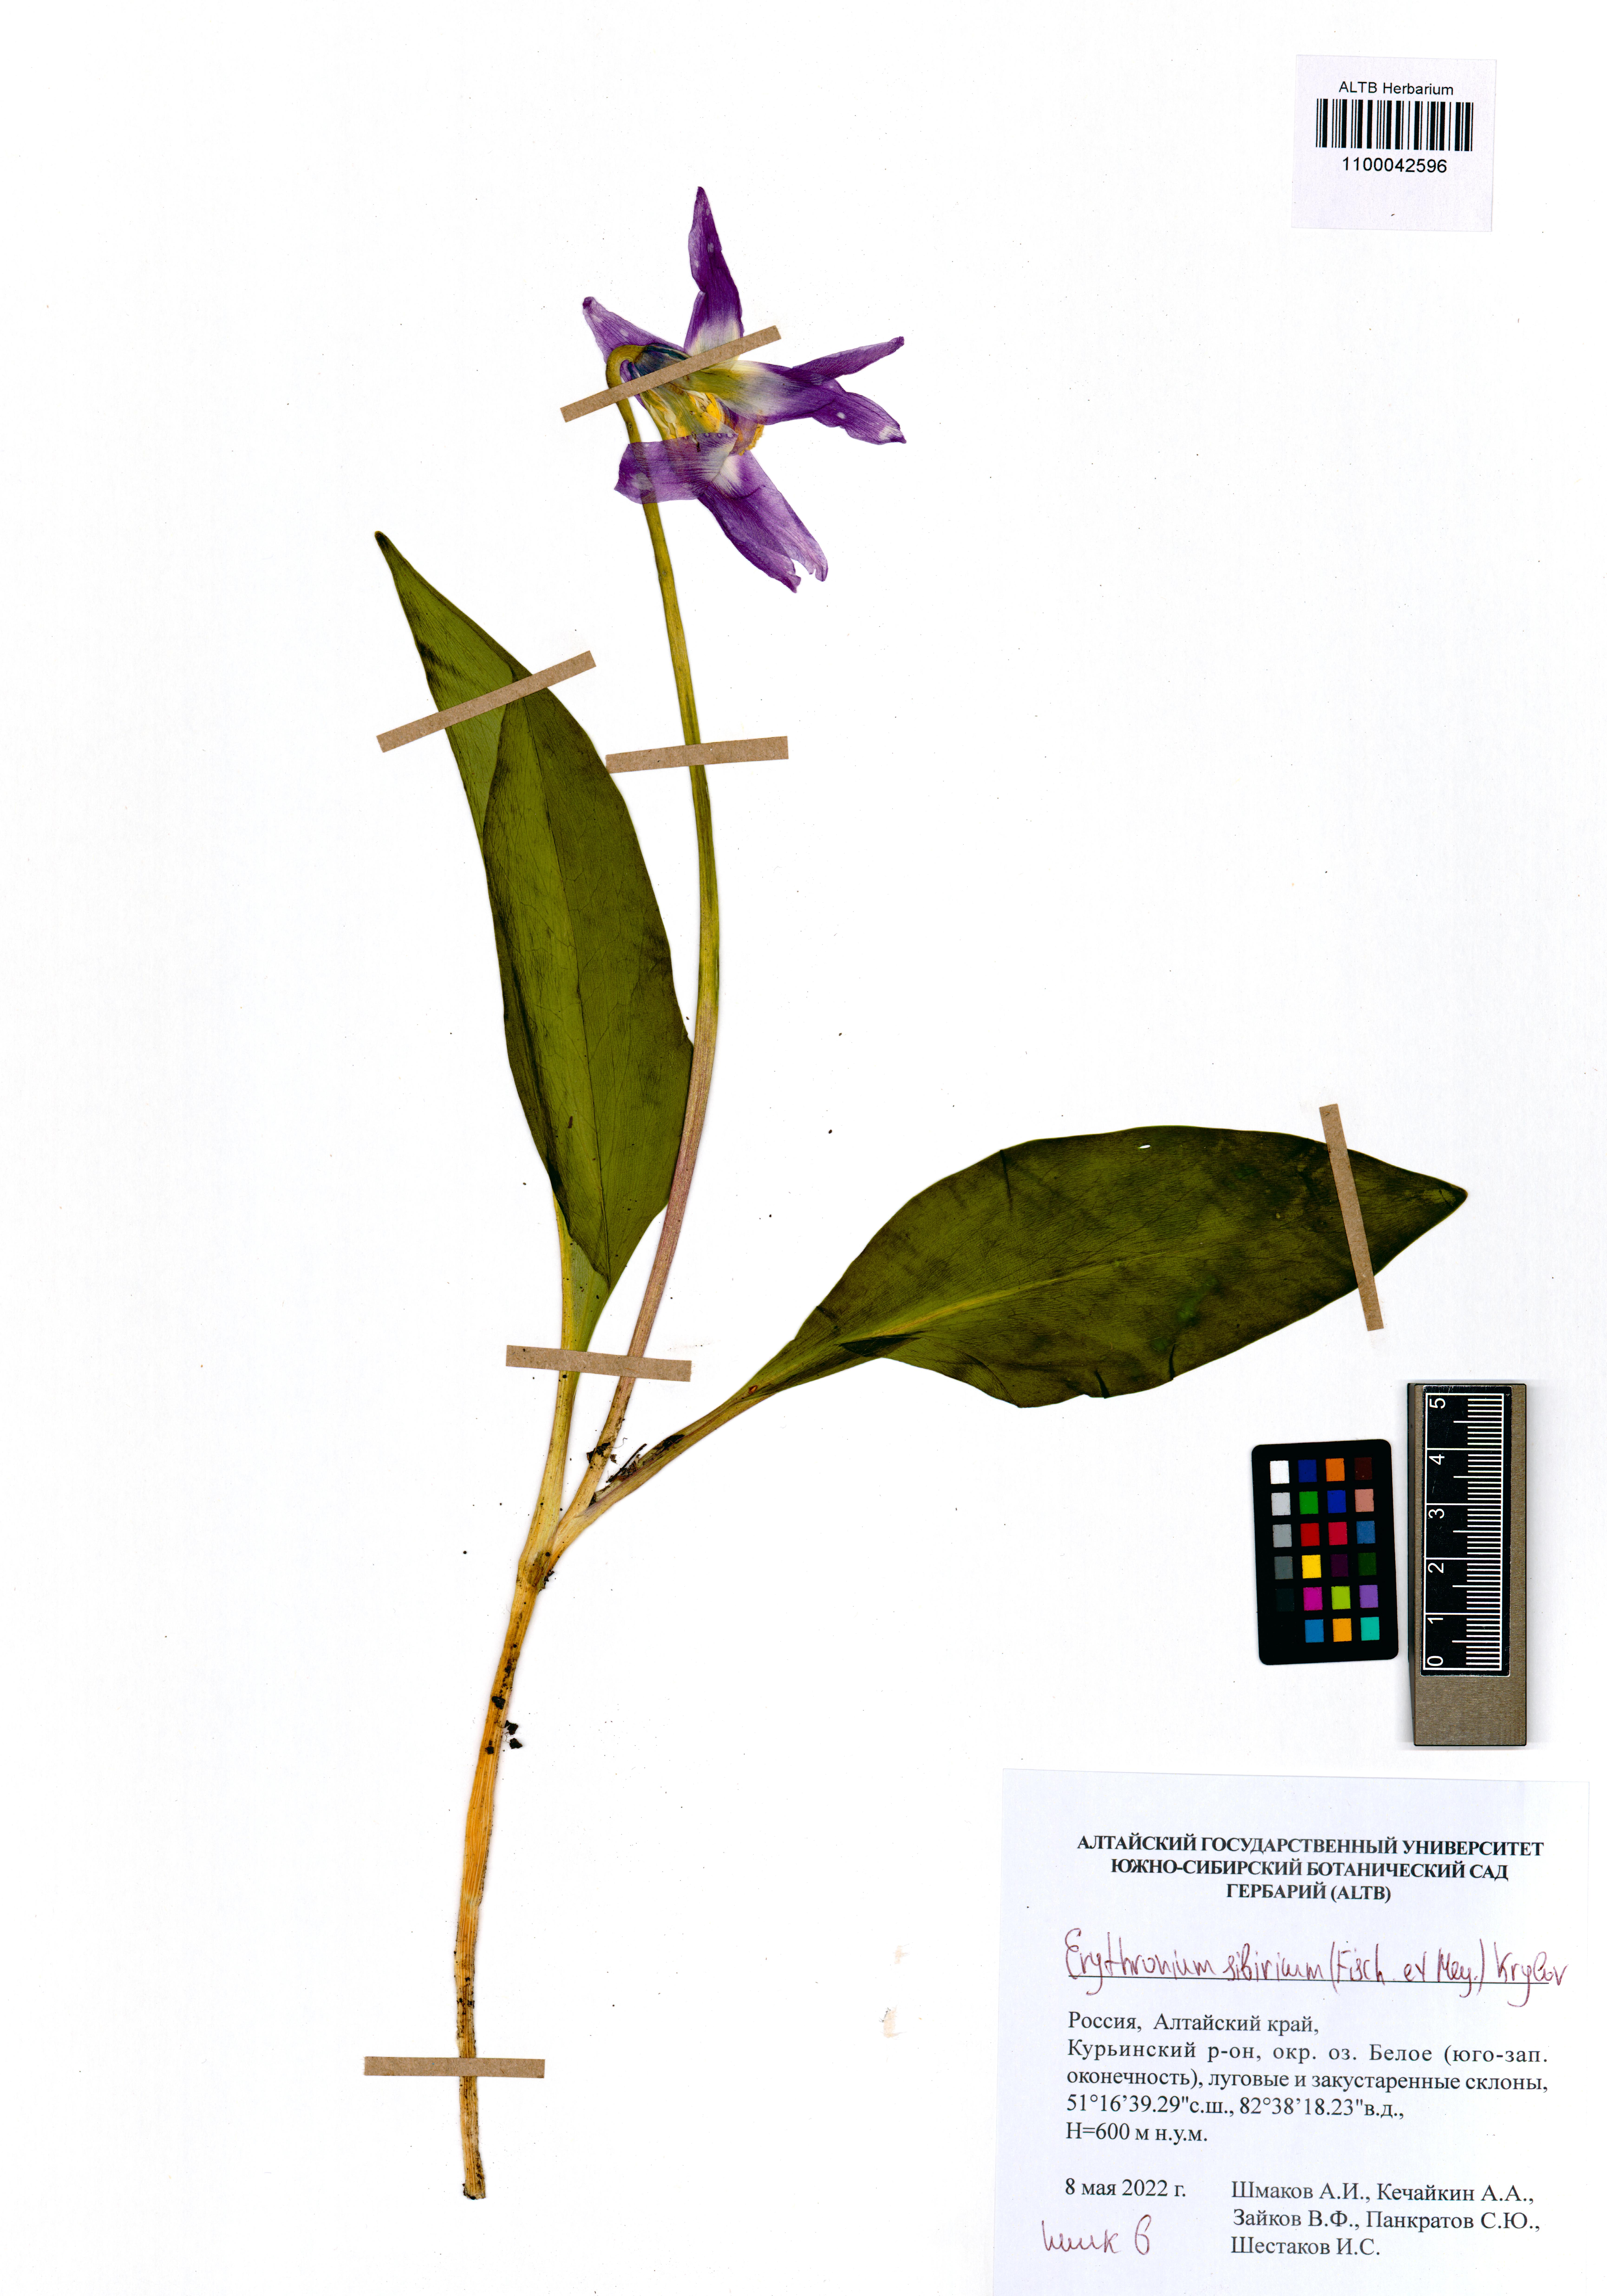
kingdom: Plantae
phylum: Tracheophyta
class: Liliopsida
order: Liliales
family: Liliaceae
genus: Erythronium
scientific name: Erythronium sibiricum
